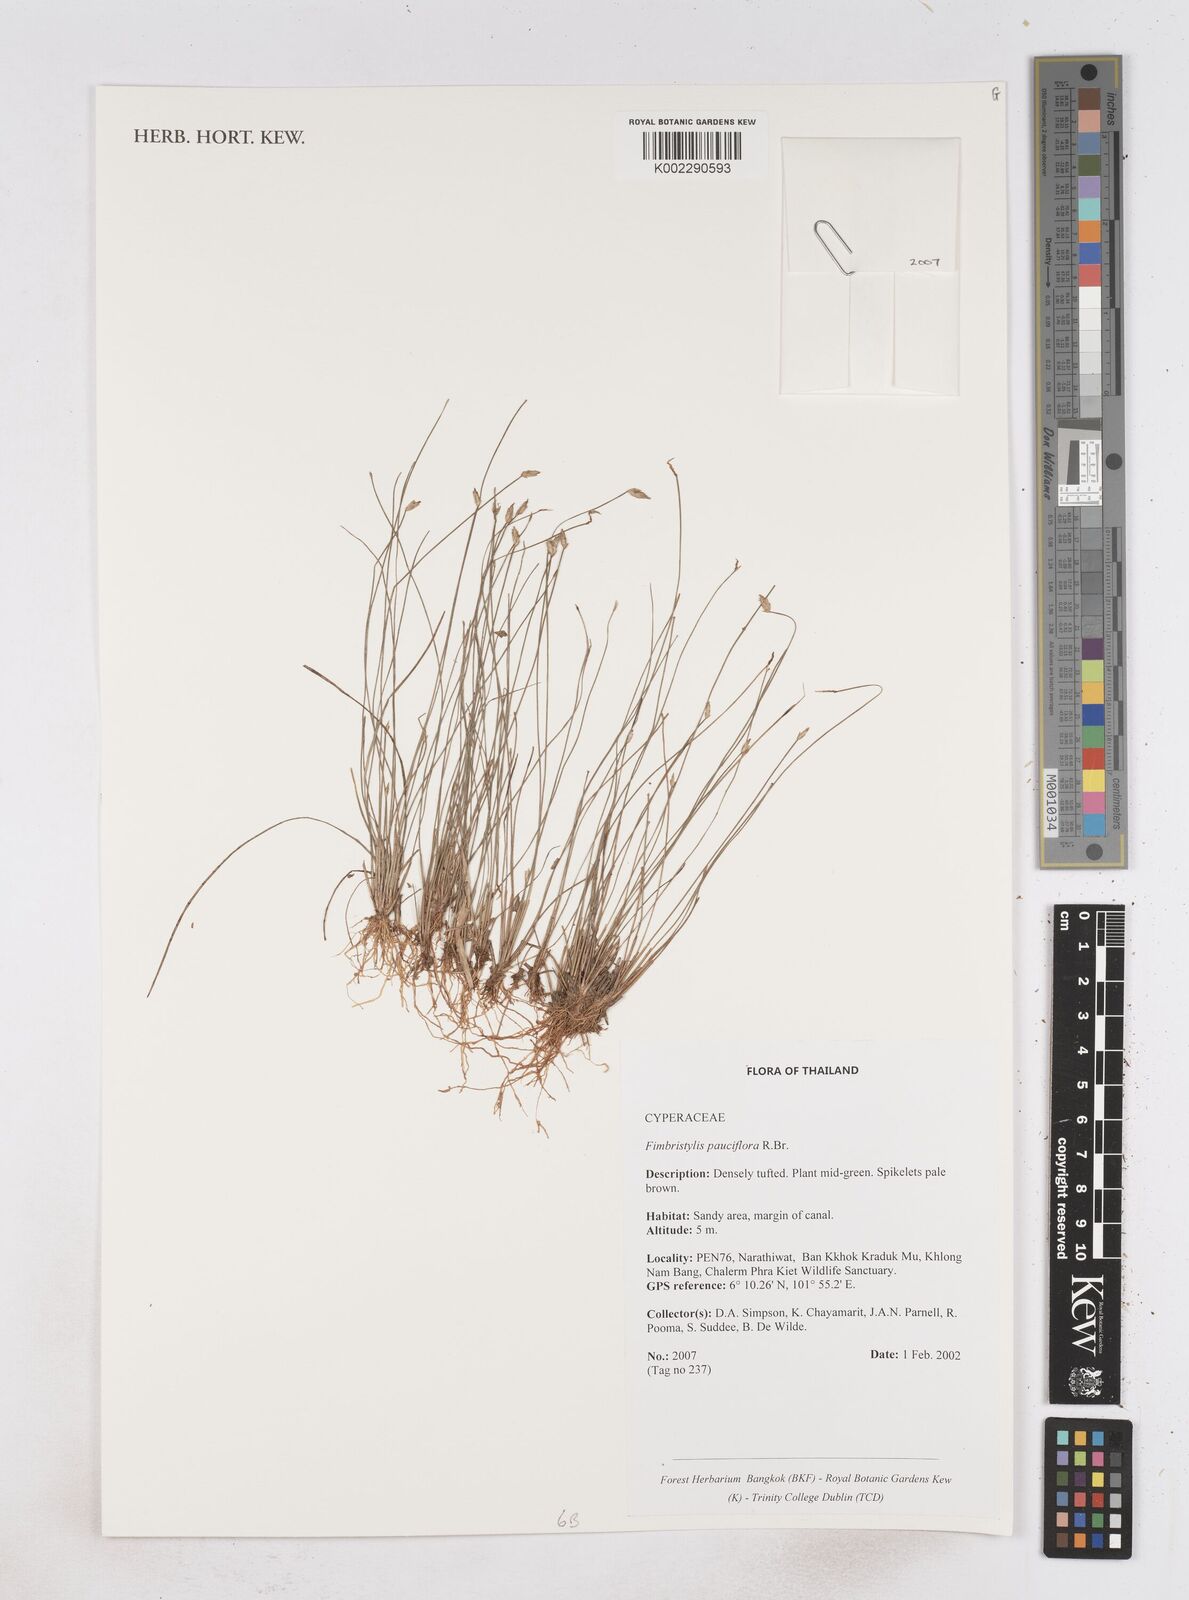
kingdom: Plantae
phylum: Tracheophyta
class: Liliopsida
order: Poales
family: Cyperaceae
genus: Fimbristylis
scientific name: Fimbristylis pauciflora
